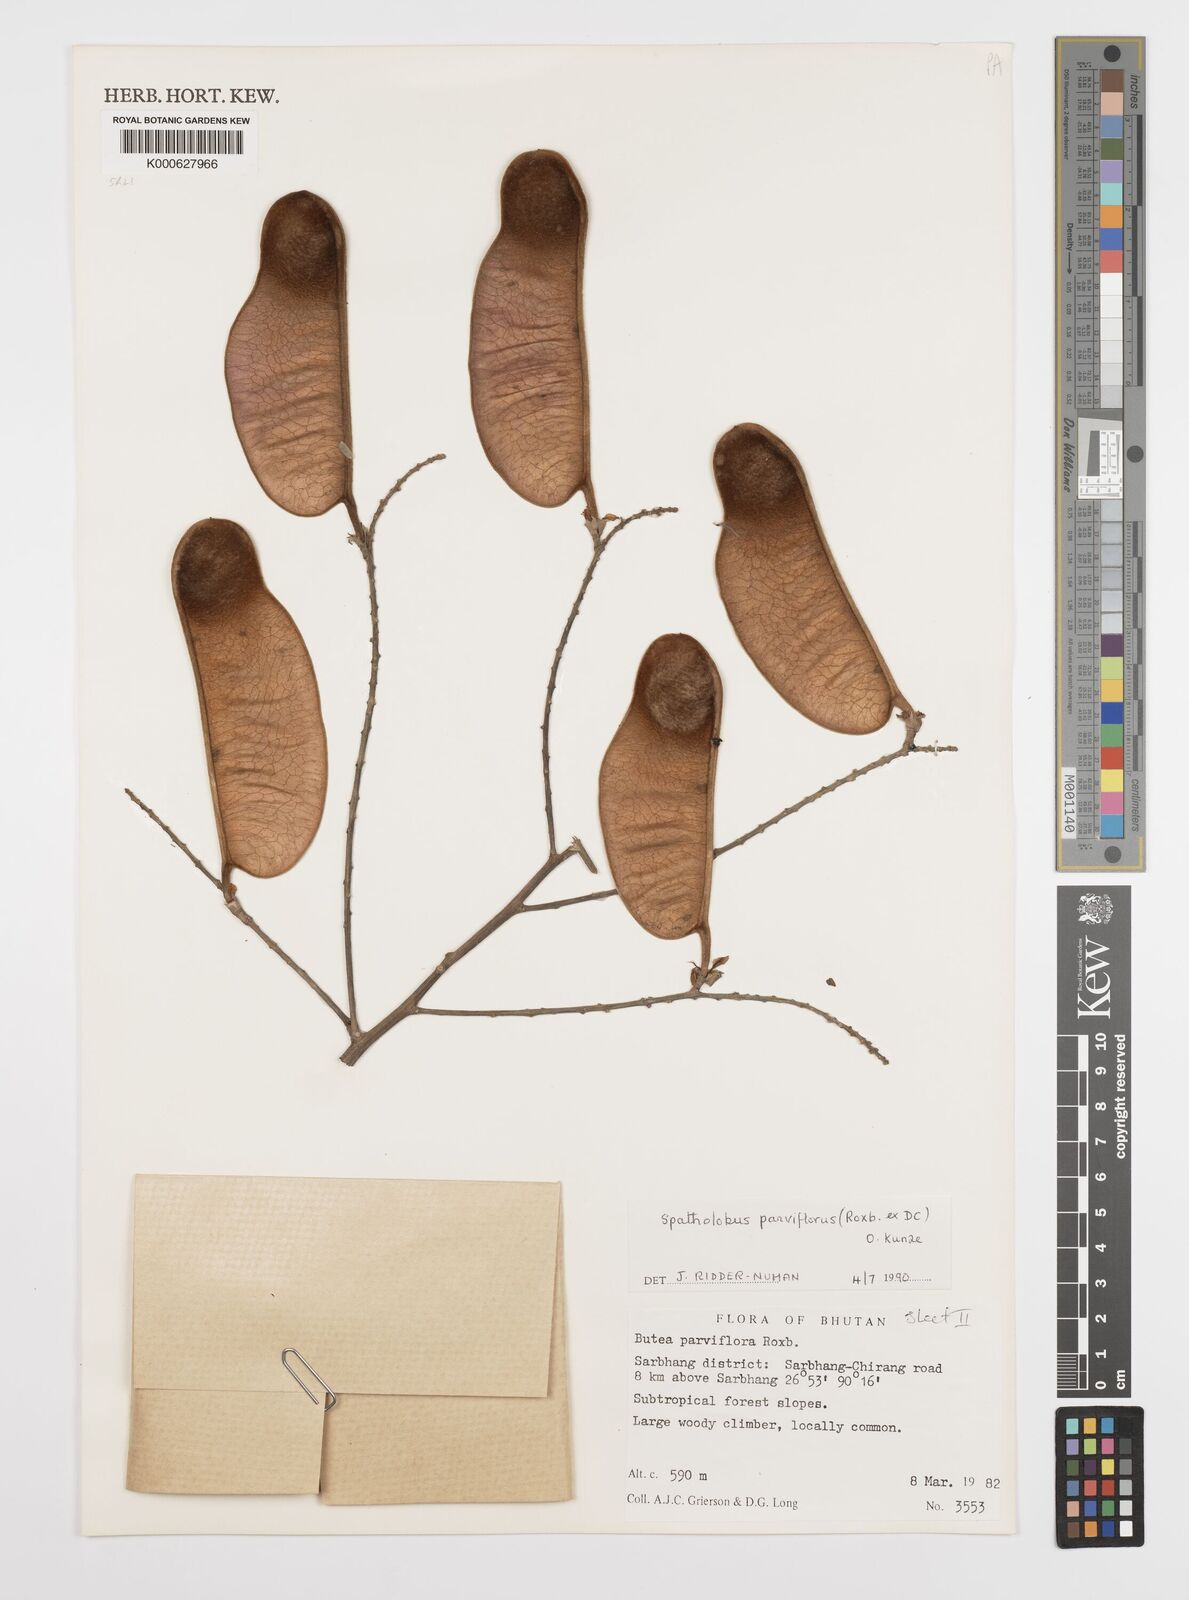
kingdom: Plantae
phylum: Tracheophyta
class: Magnoliopsida
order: Fabales
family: Fabaceae
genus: Spatholobus
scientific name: Spatholobus parviflorus
